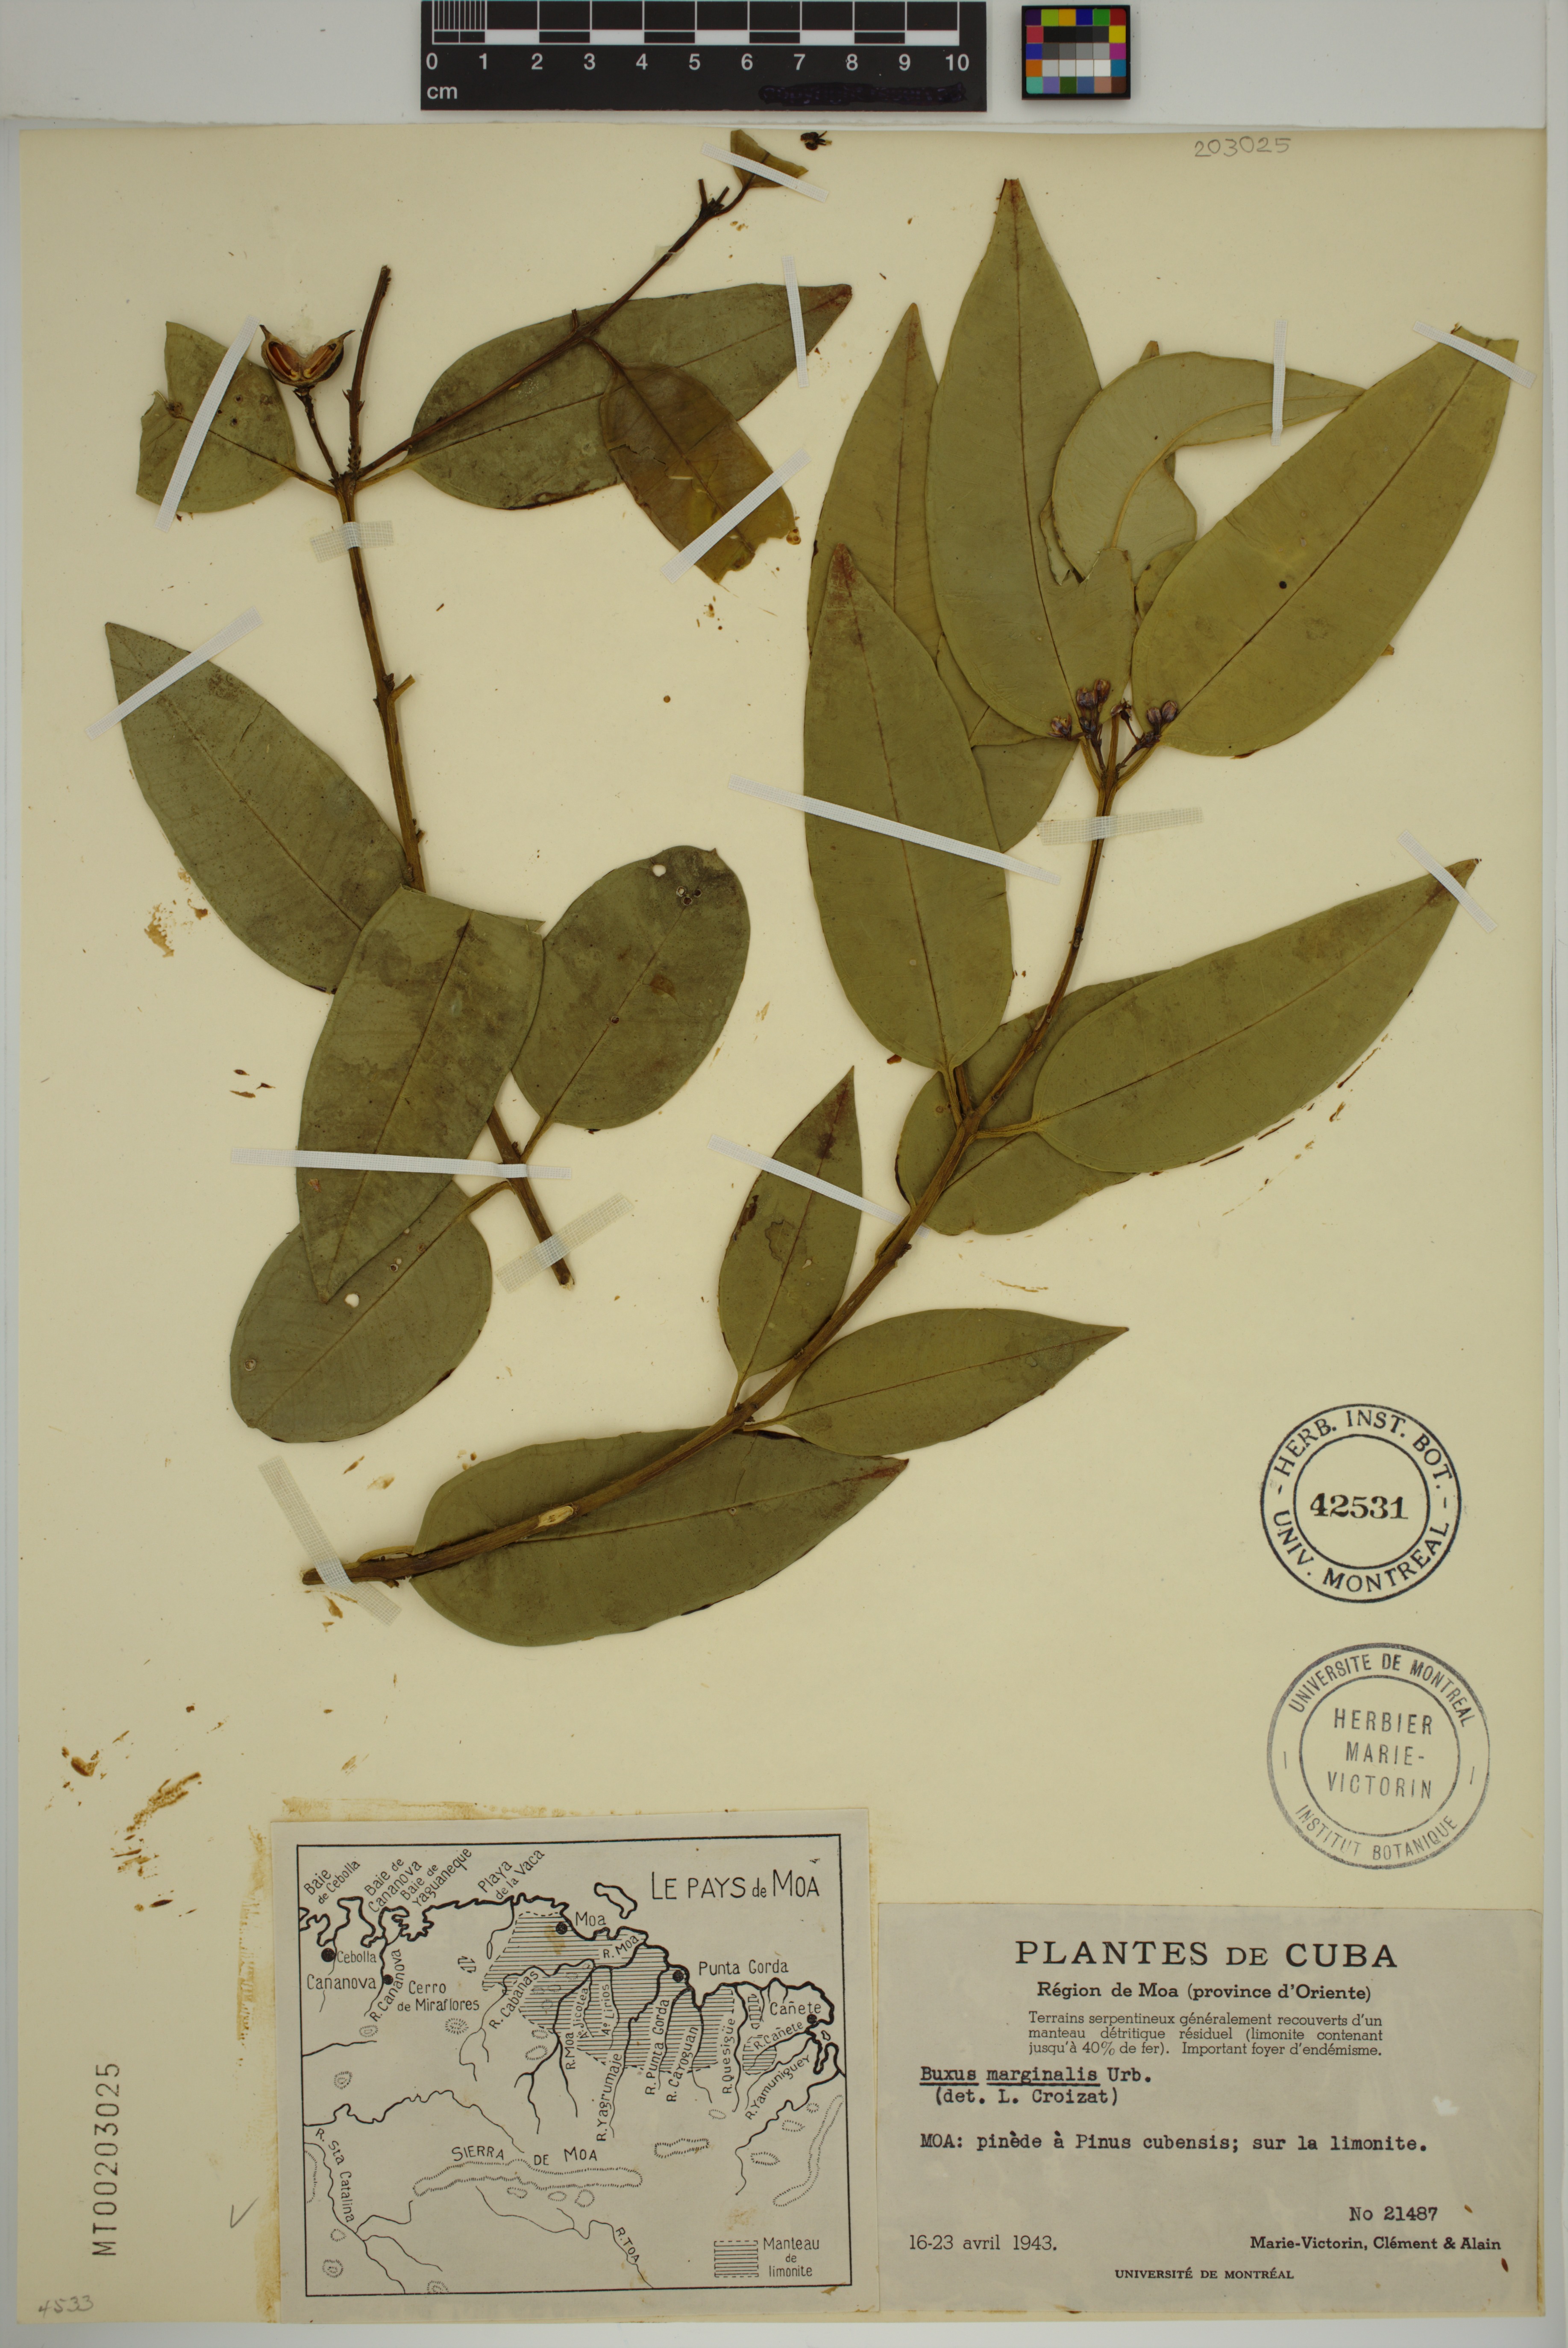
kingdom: Plantae
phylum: Tracheophyta
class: Magnoliopsida
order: Buxales
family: Buxaceae
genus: Buxus
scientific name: Buxus marginalis
